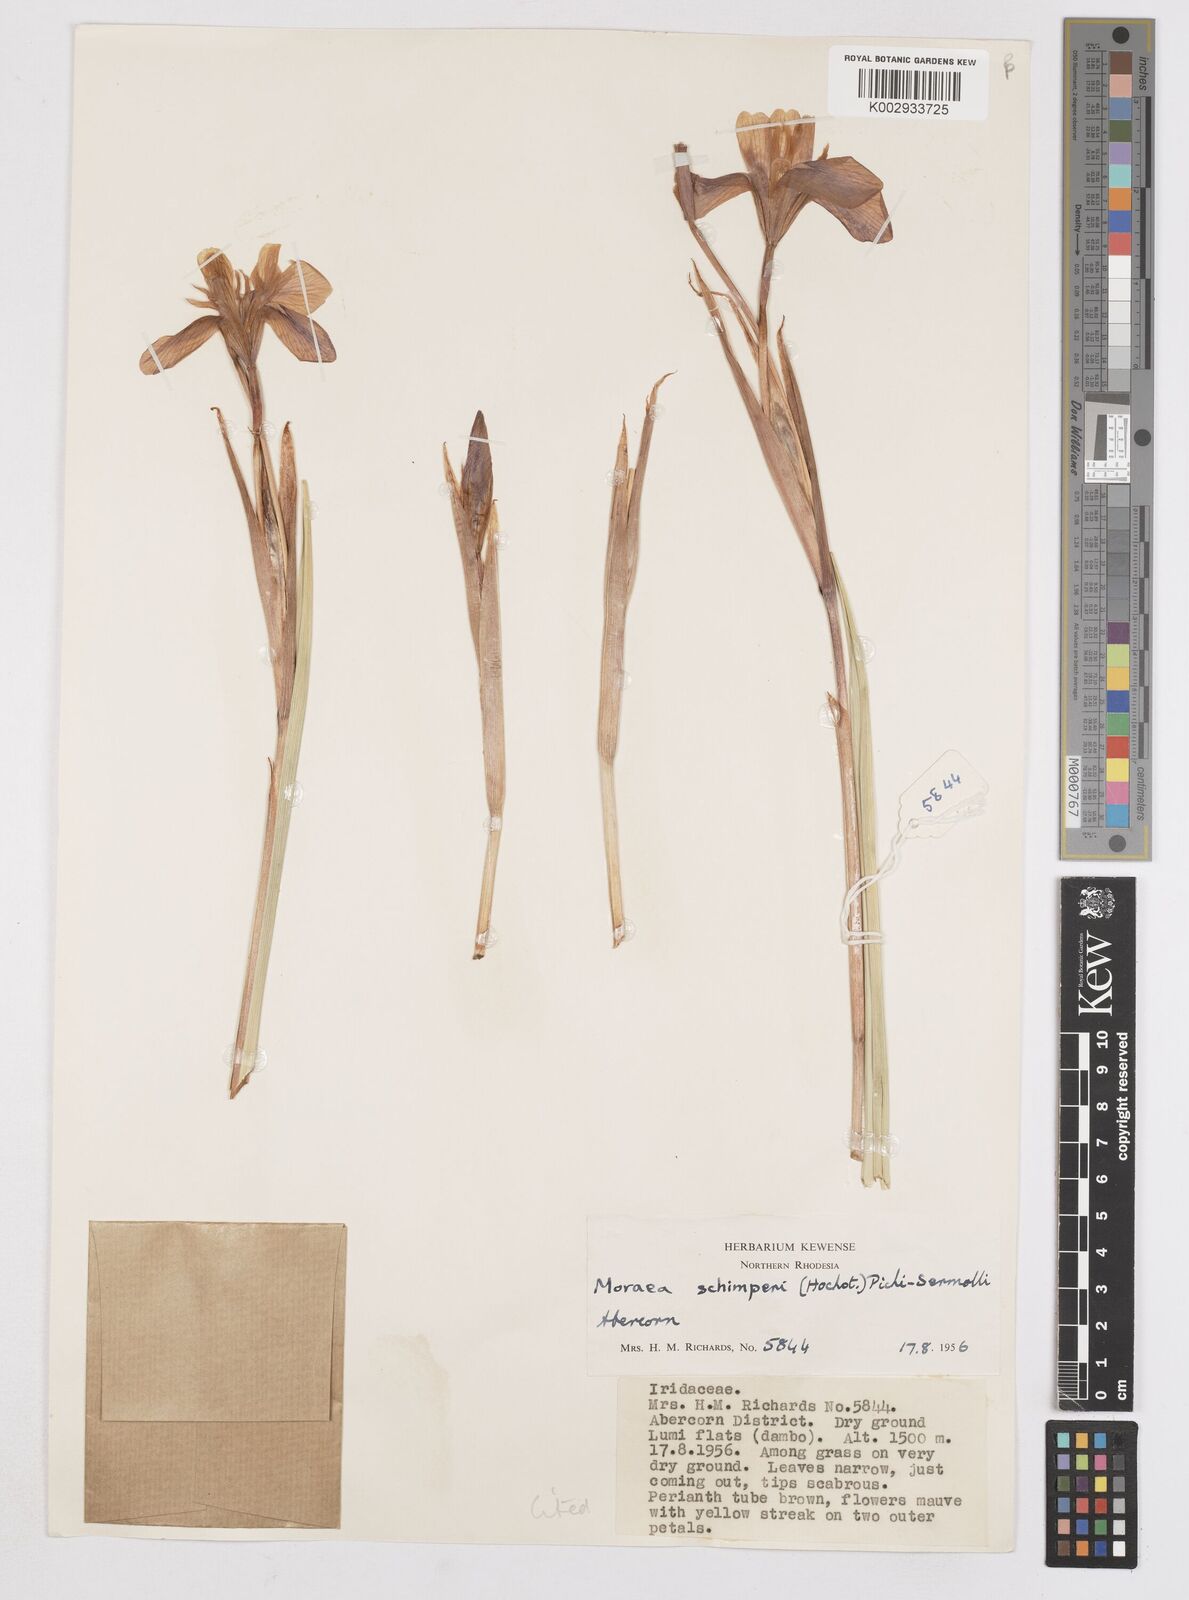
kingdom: Plantae
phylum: Tracheophyta
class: Liliopsida
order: Asparagales
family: Iridaceae
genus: Moraea
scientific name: Moraea schimperi
